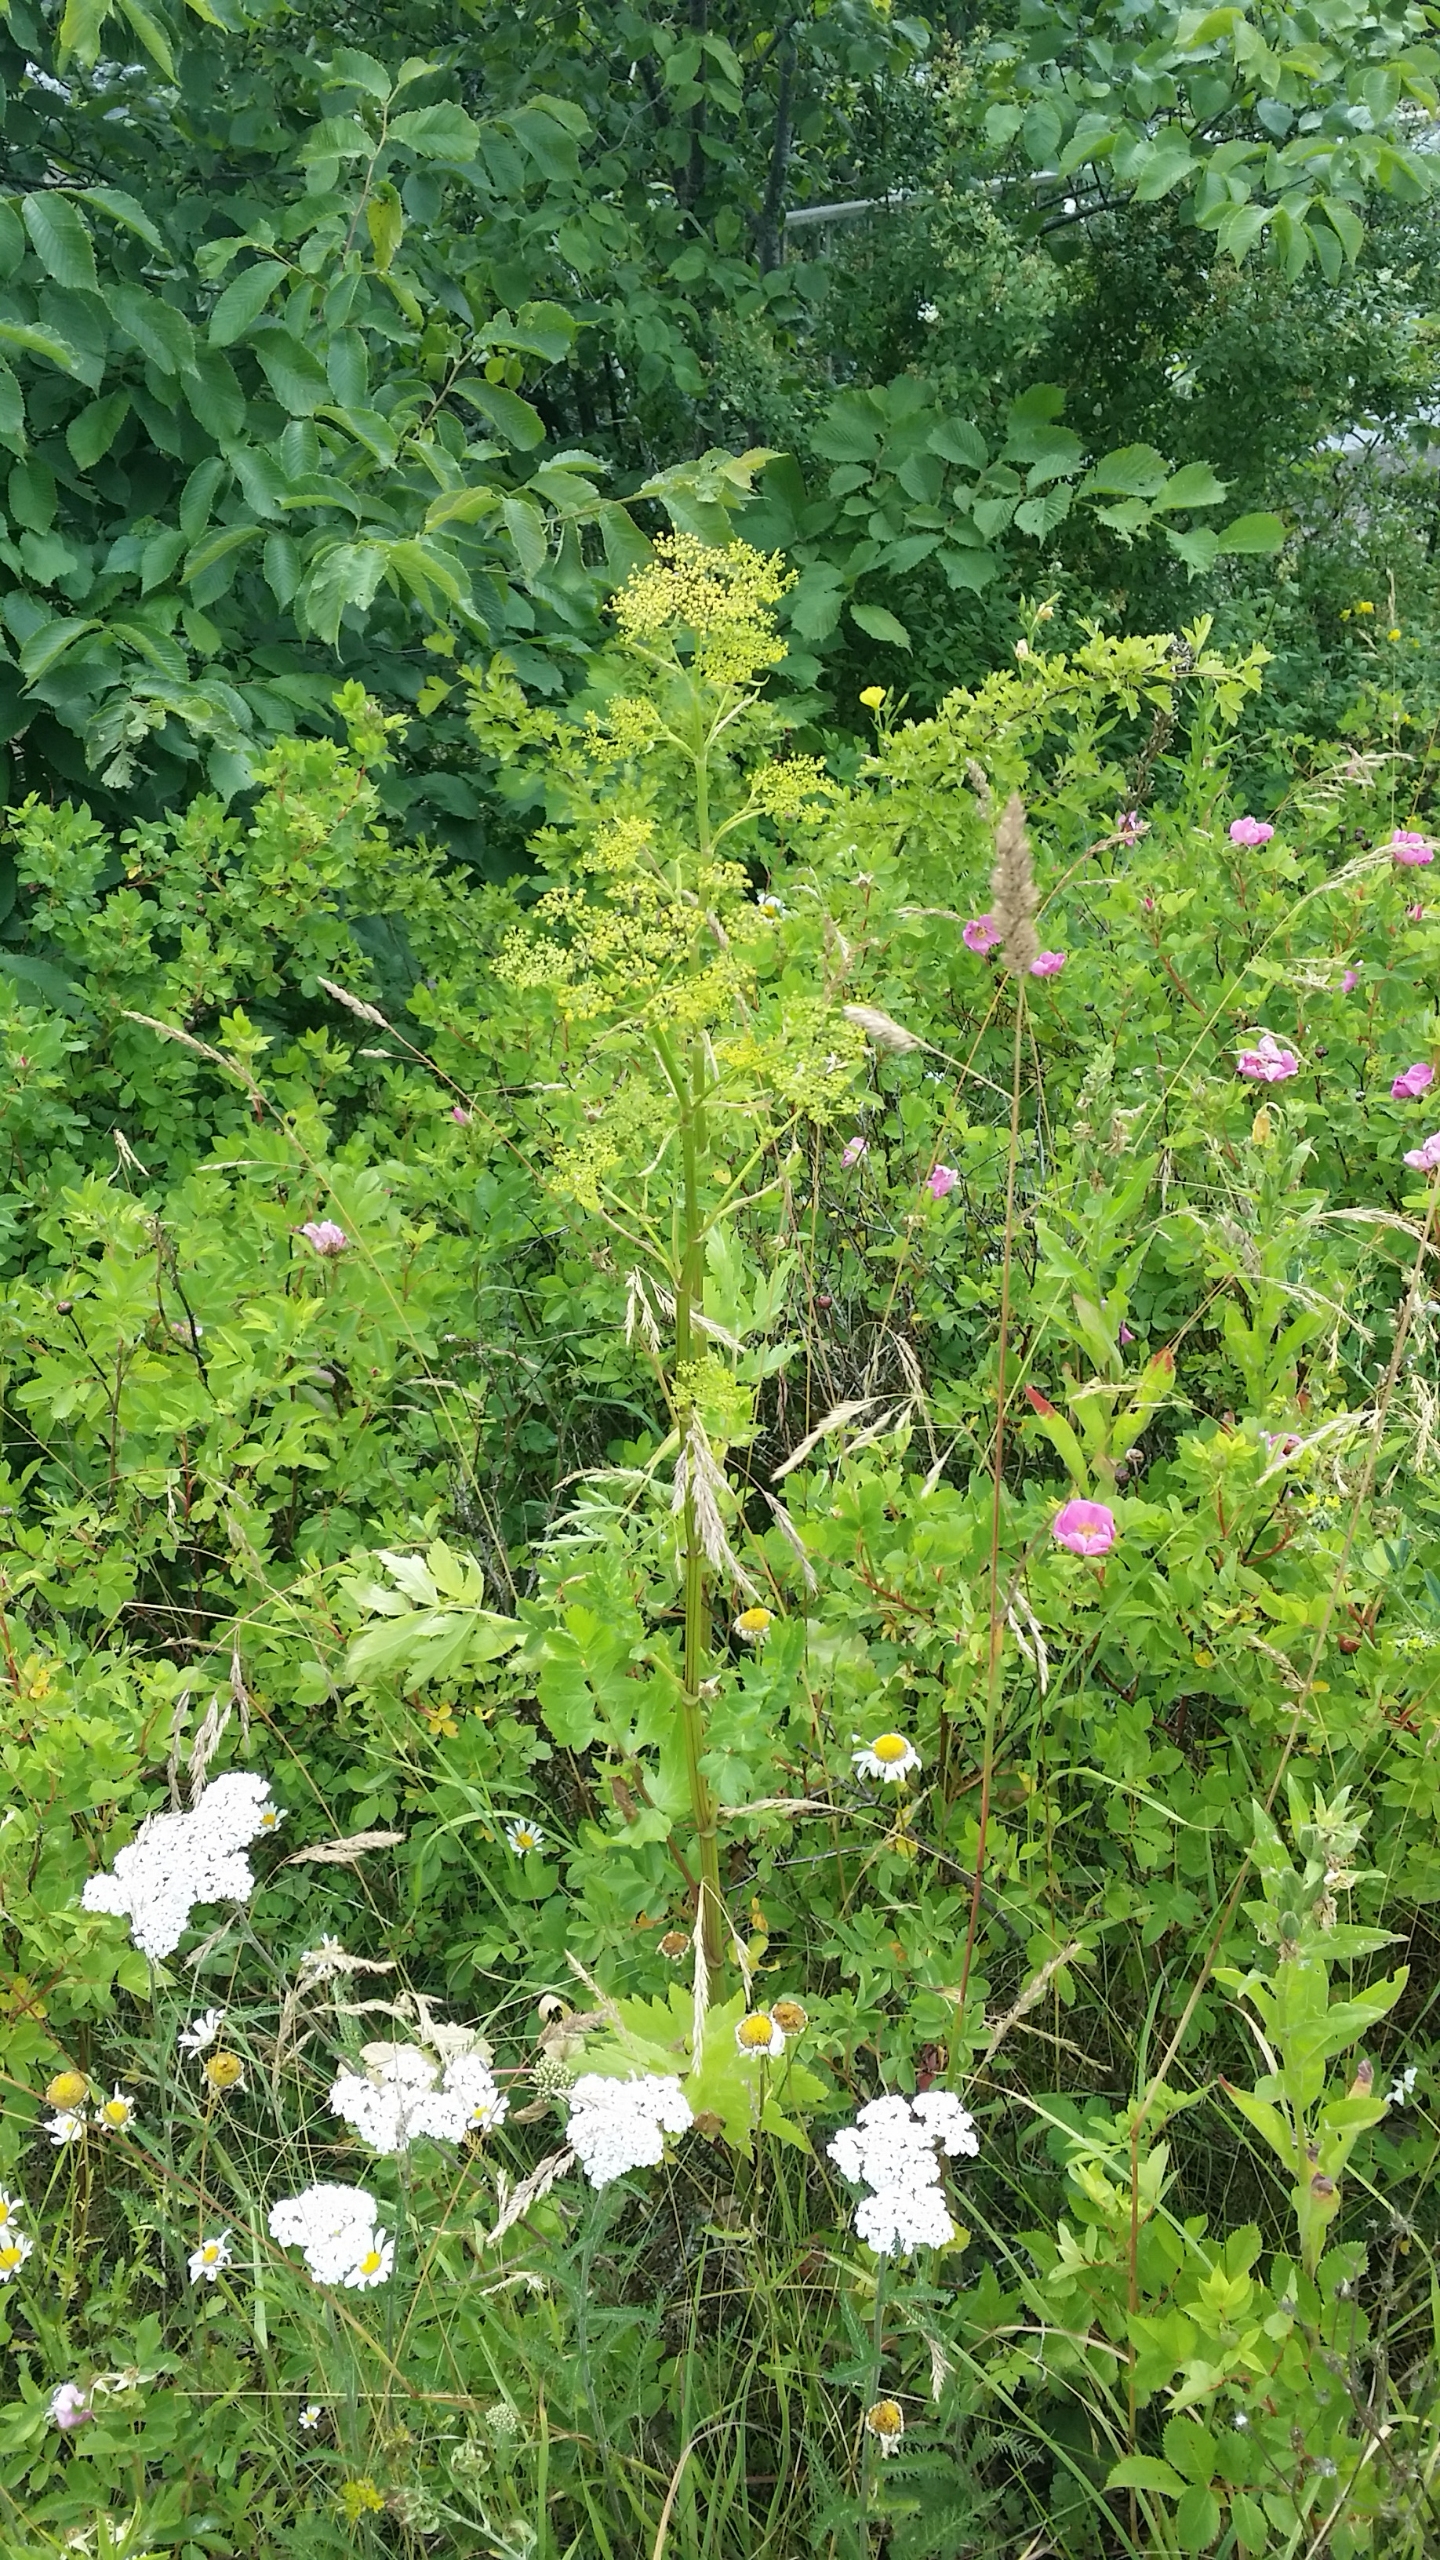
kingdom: Plantae
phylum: Tracheophyta
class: Magnoliopsida
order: Apiales
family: Apiaceae
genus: Pastinaca
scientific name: Pastinaca sativa
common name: Pastinak
